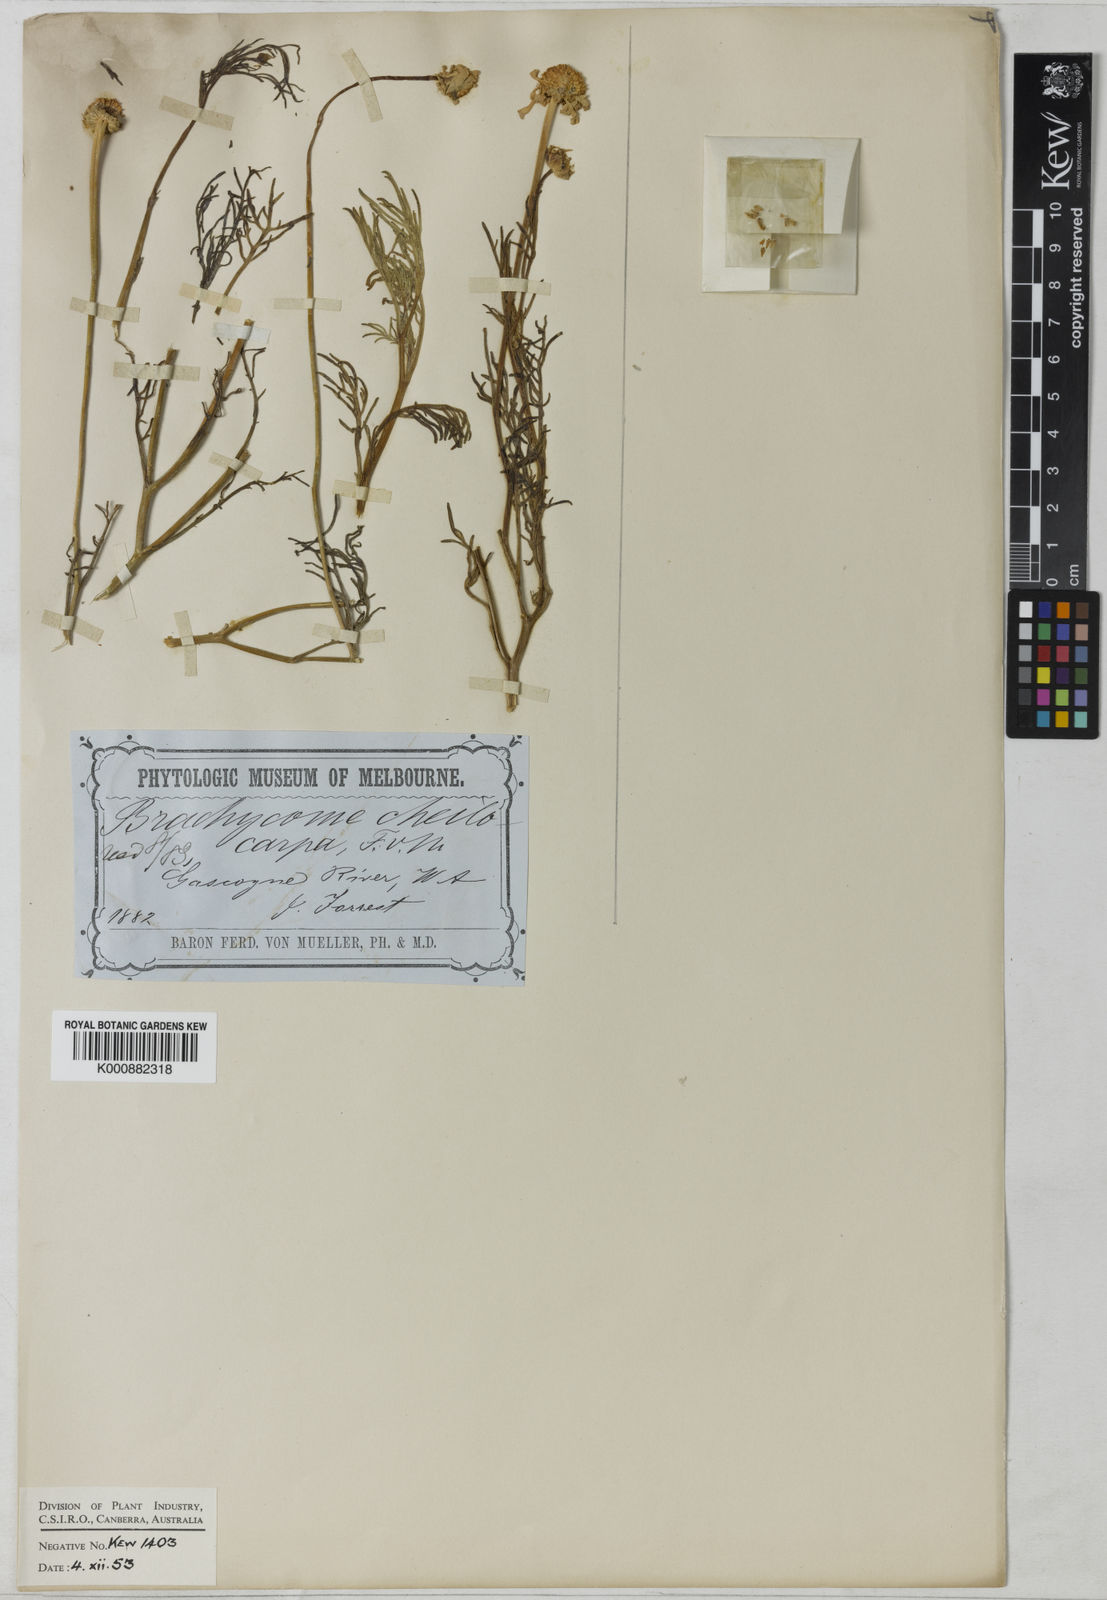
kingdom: Plantae
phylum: Tracheophyta
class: Magnoliopsida
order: Asterales
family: Asteraceae
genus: Roebuckiella
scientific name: Roebuckiella cheilocarpa
